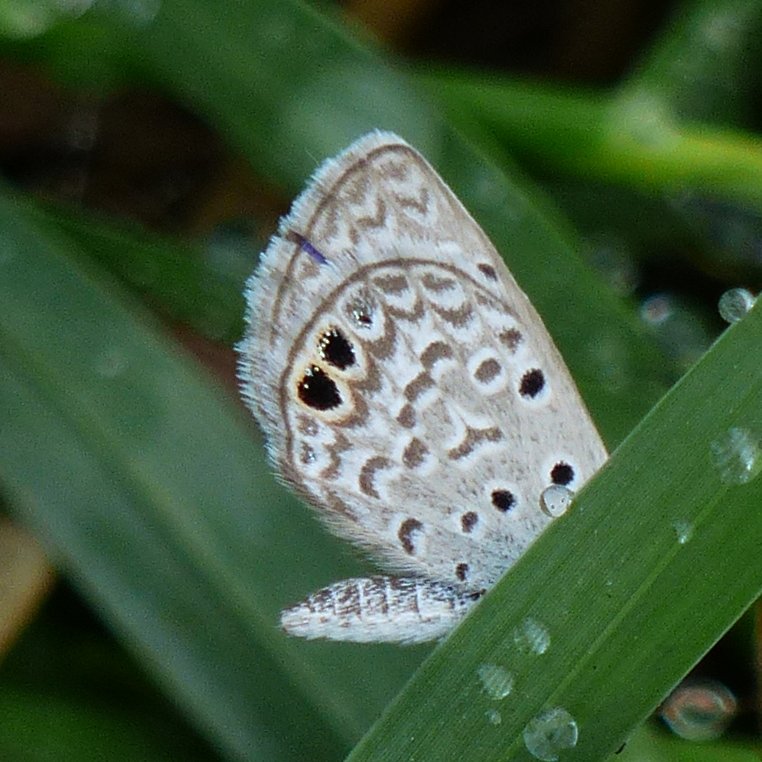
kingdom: Animalia
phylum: Arthropoda
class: Insecta
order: Lepidoptera
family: Lycaenidae
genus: Hemiargus
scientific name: Hemiargus ceraunus
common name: Ceraunus Blue
